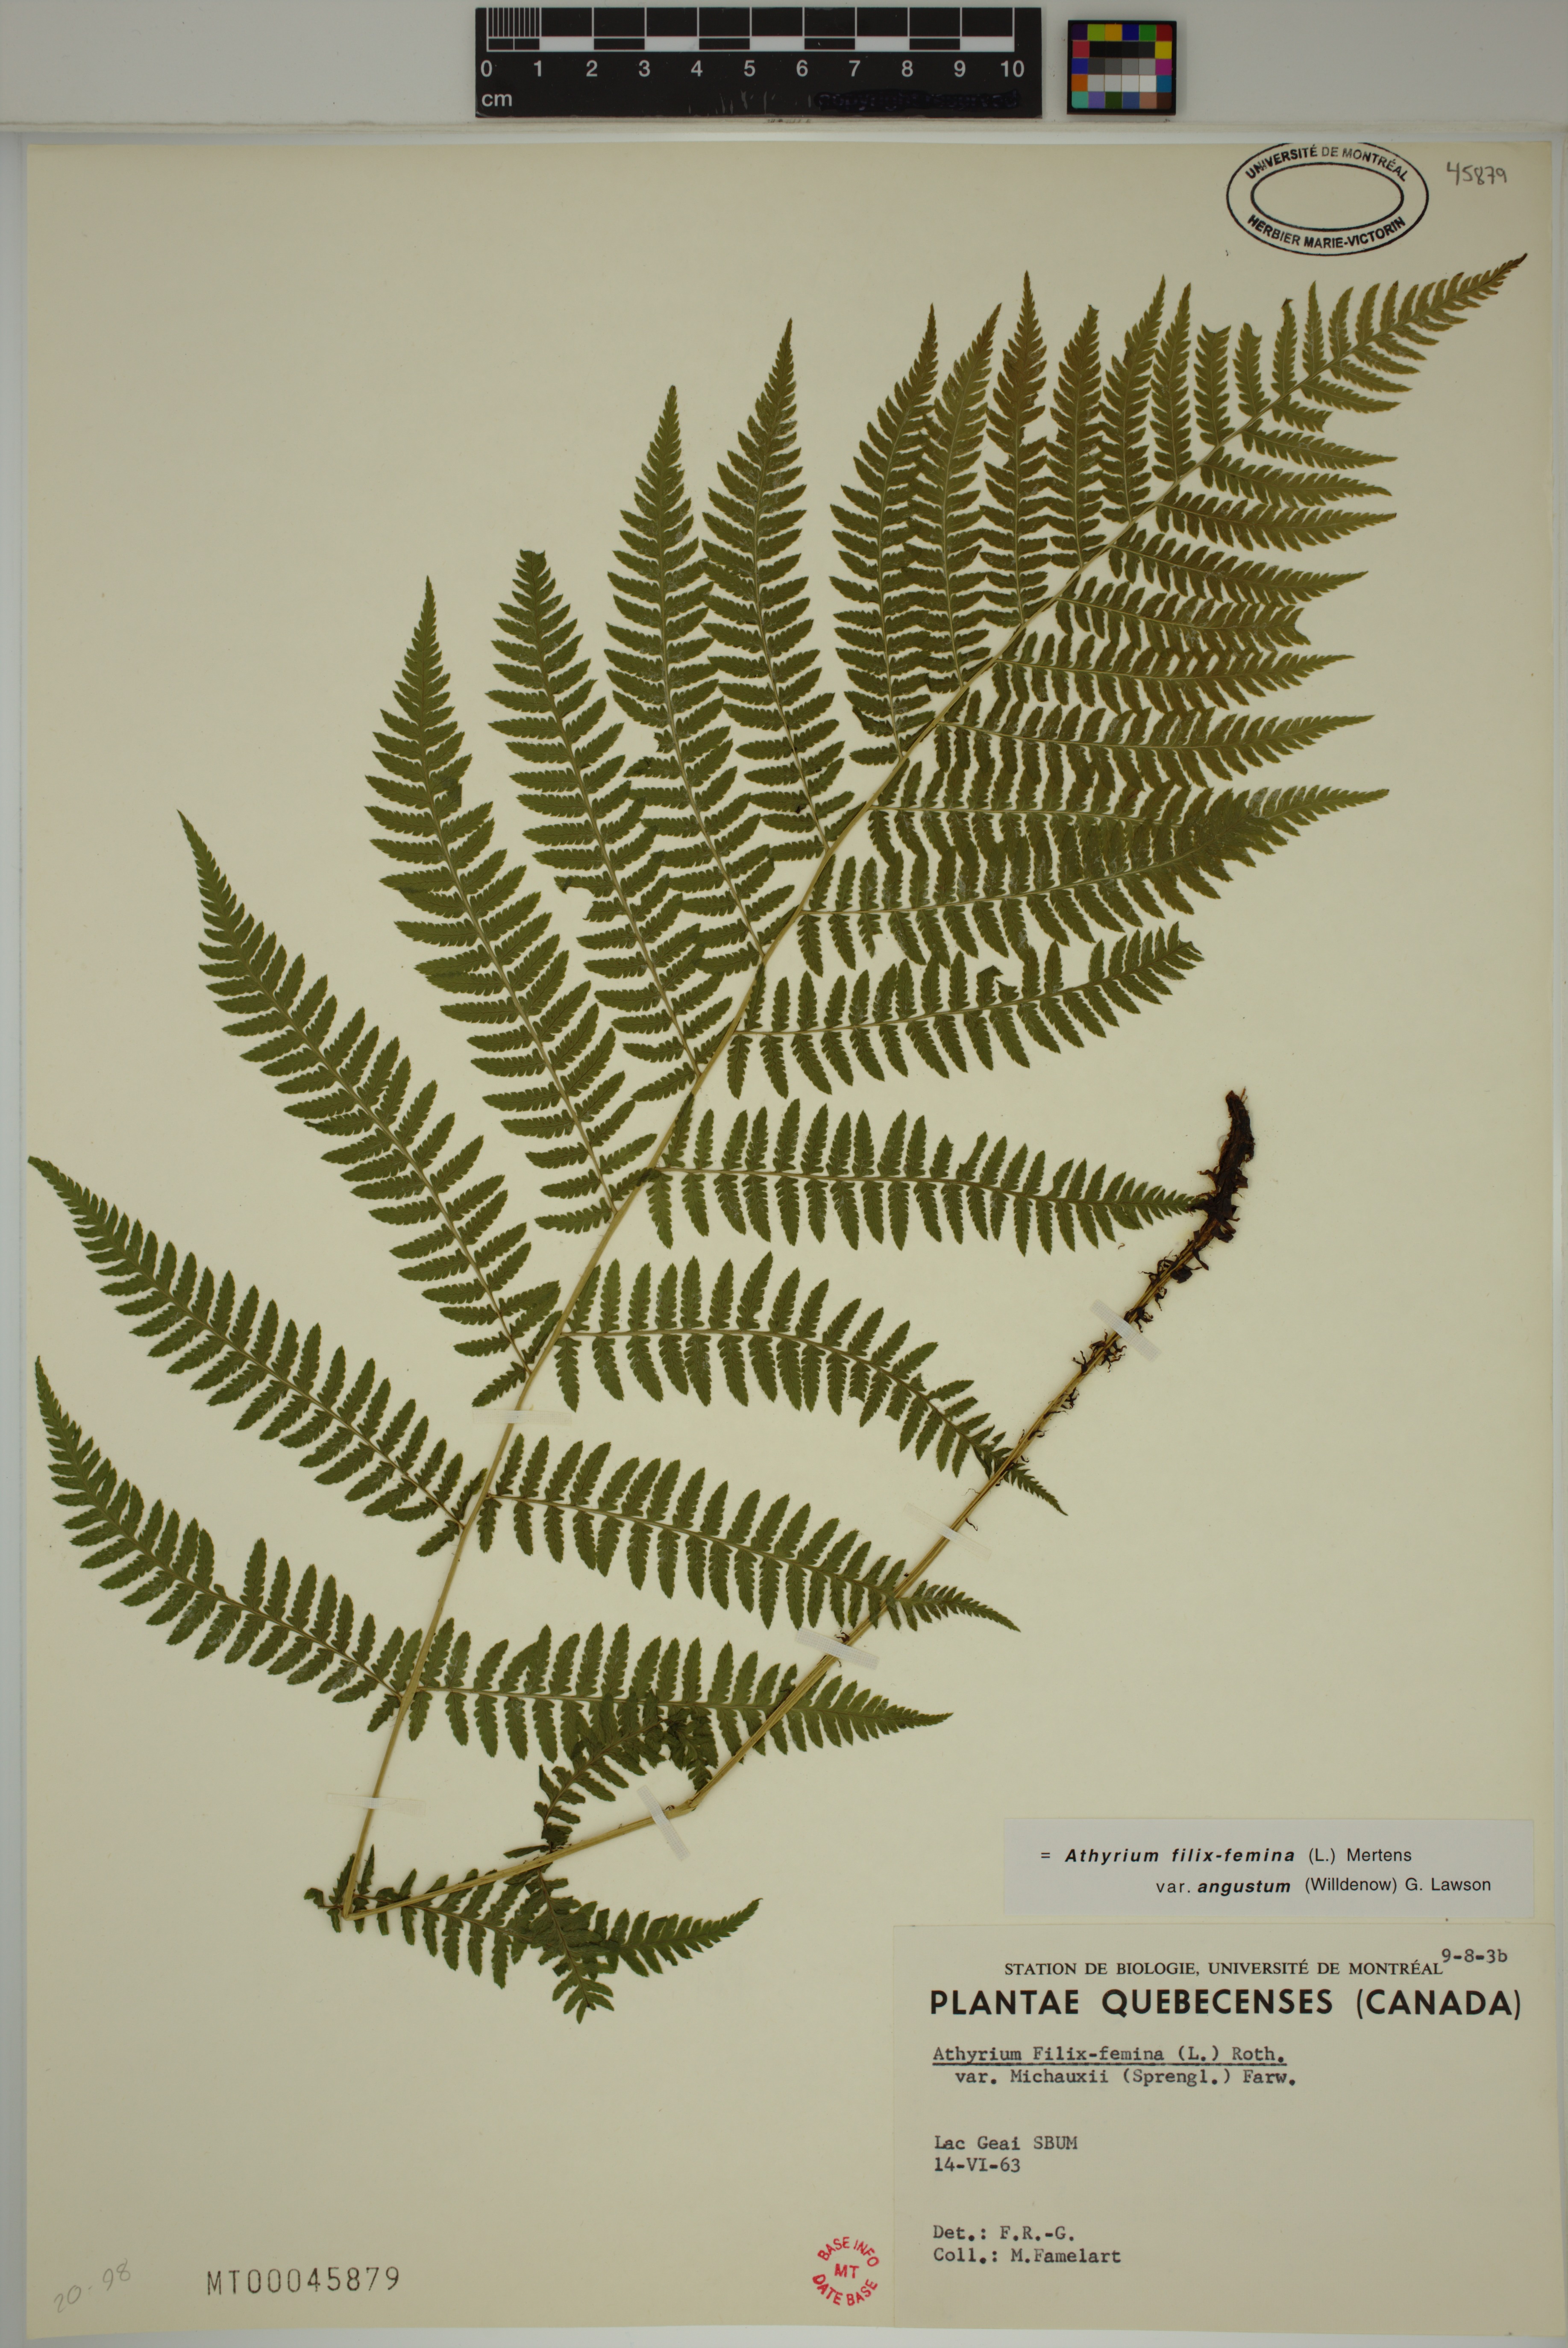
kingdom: Plantae
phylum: Tracheophyta
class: Polypodiopsida
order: Polypodiales
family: Athyriaceae
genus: Athyrium
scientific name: Athyrium angustum
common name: Northern lady fern
